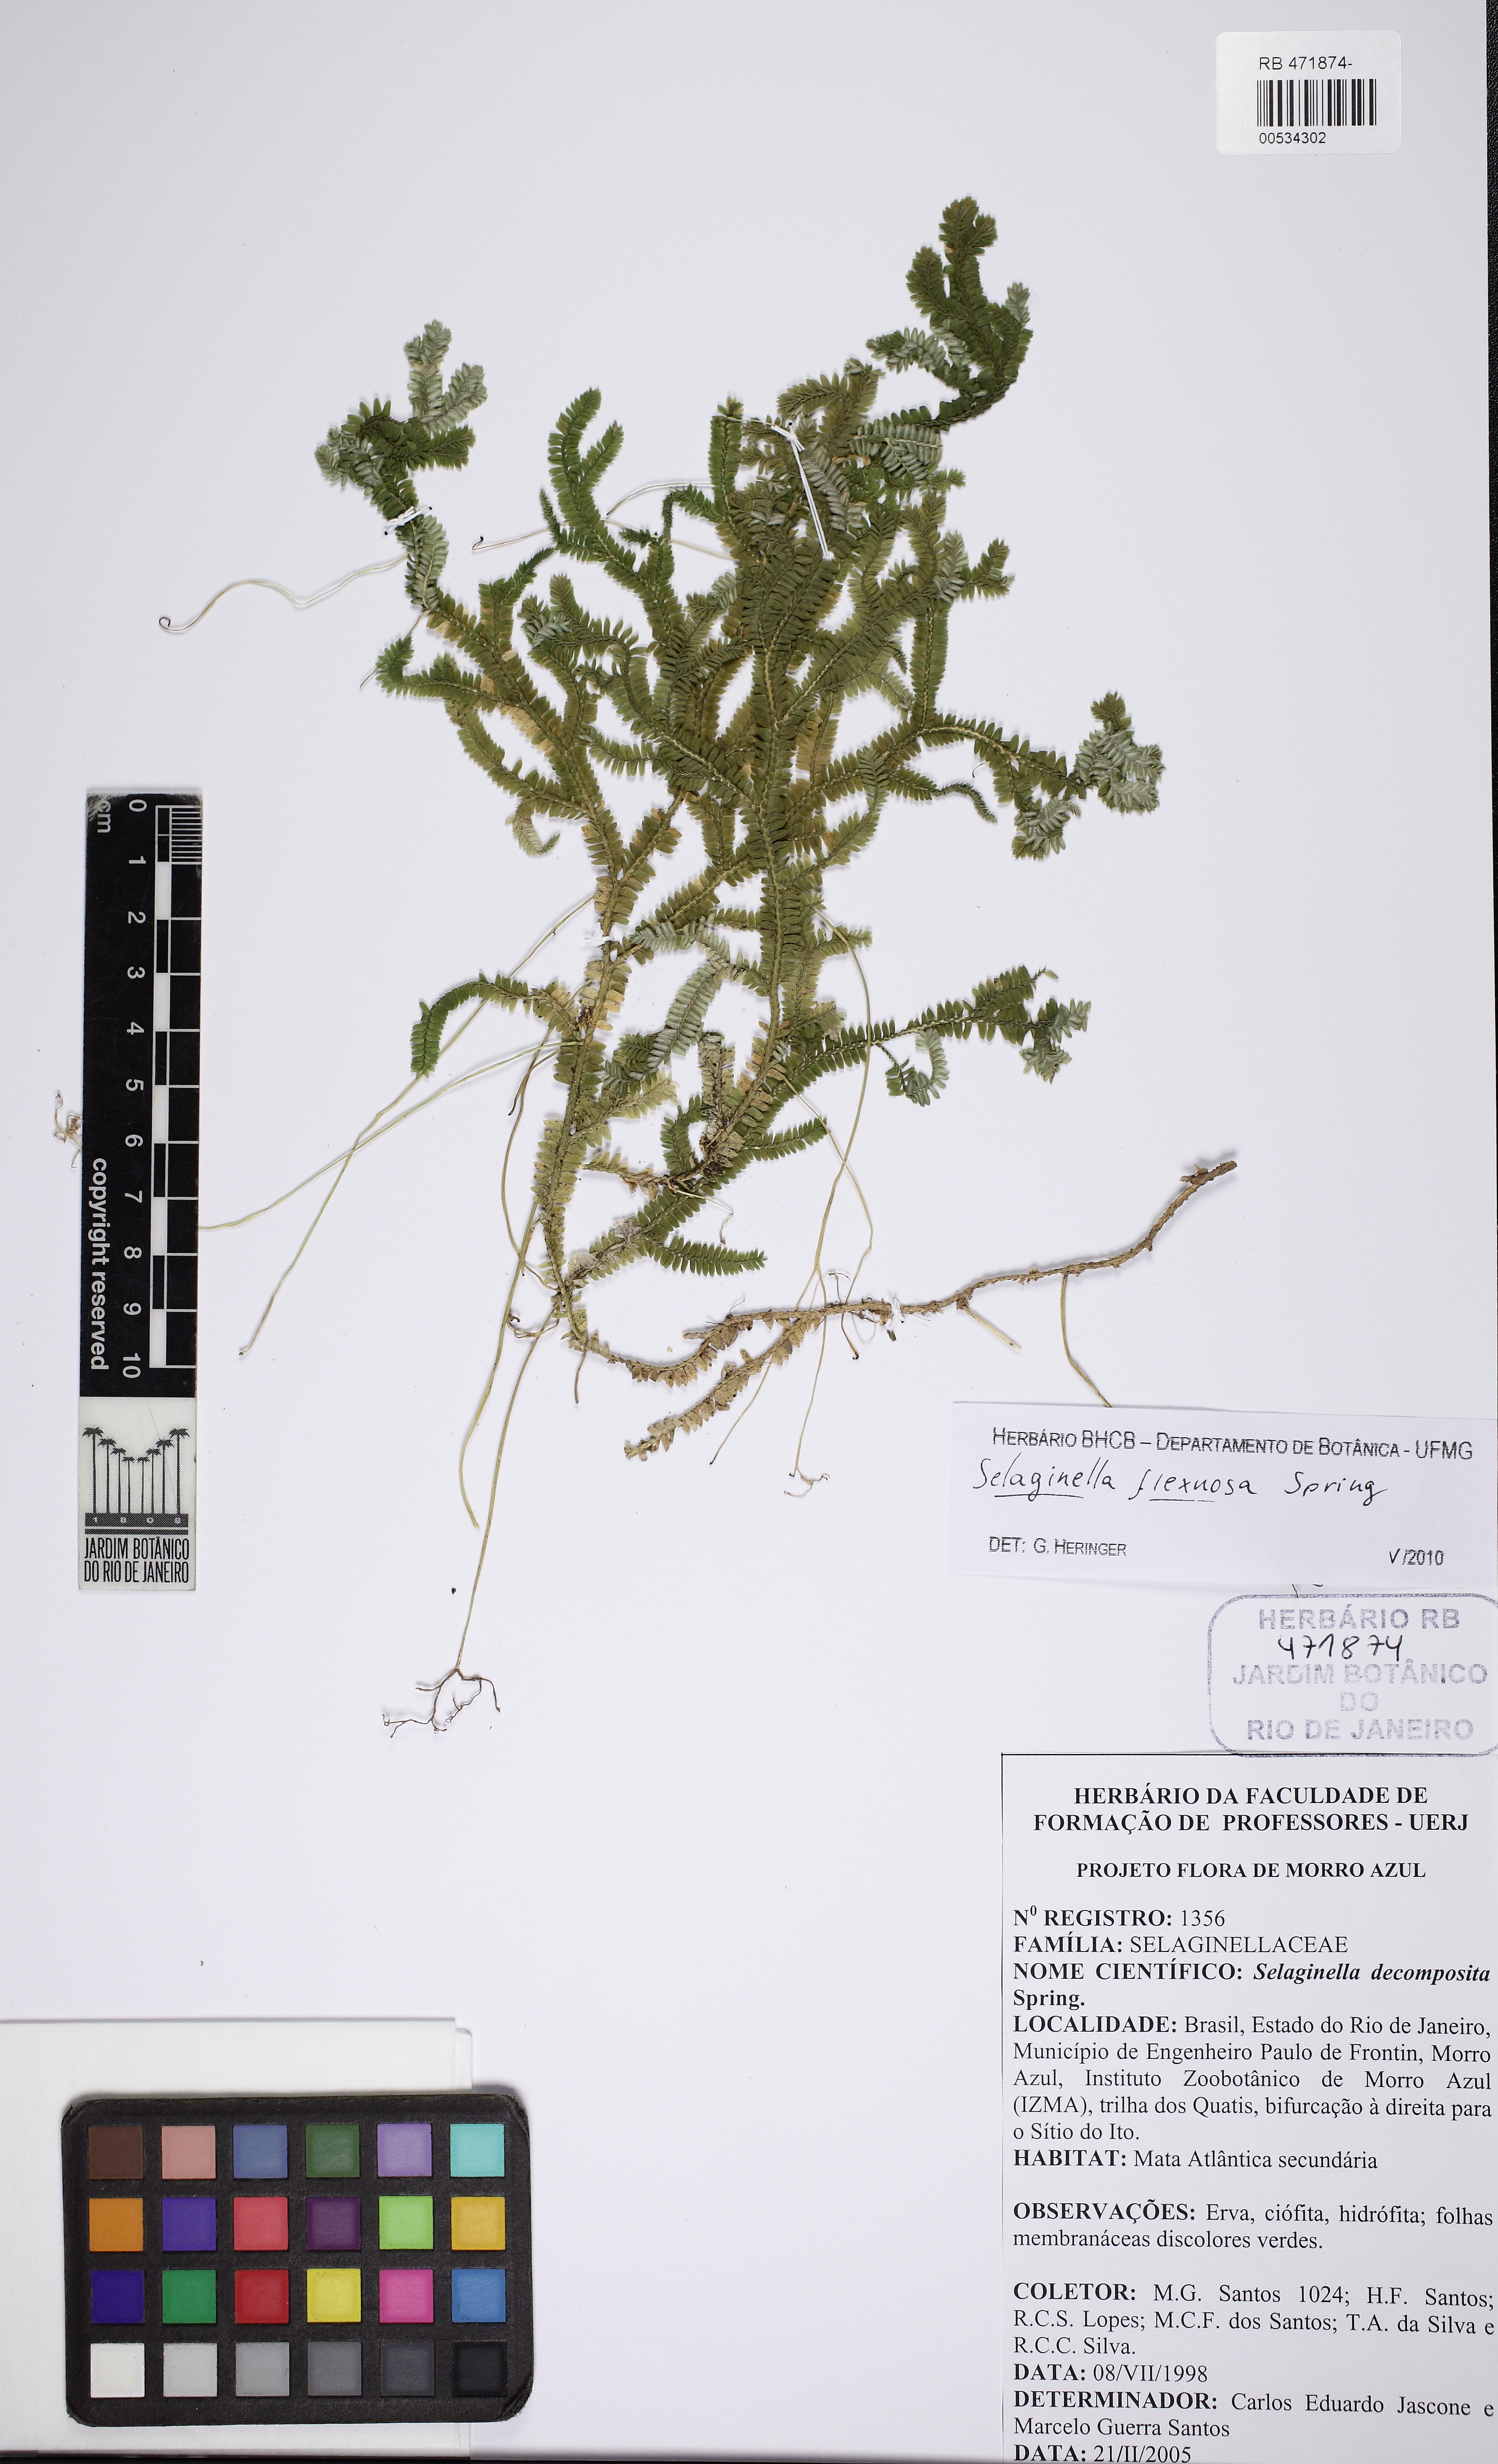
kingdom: Plantae
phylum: Tracheophyta
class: Lycopodiopsida
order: Selaginellales
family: Selaginellaceae
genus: Selaginella
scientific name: Selaginella decomposita
